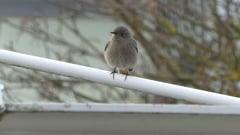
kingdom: Animalia
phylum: Chordata
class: Aves
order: Passeriformes
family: Muscicapidae
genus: Phoenicurus
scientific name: Phoenicurus ochruros
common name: Black redstart
